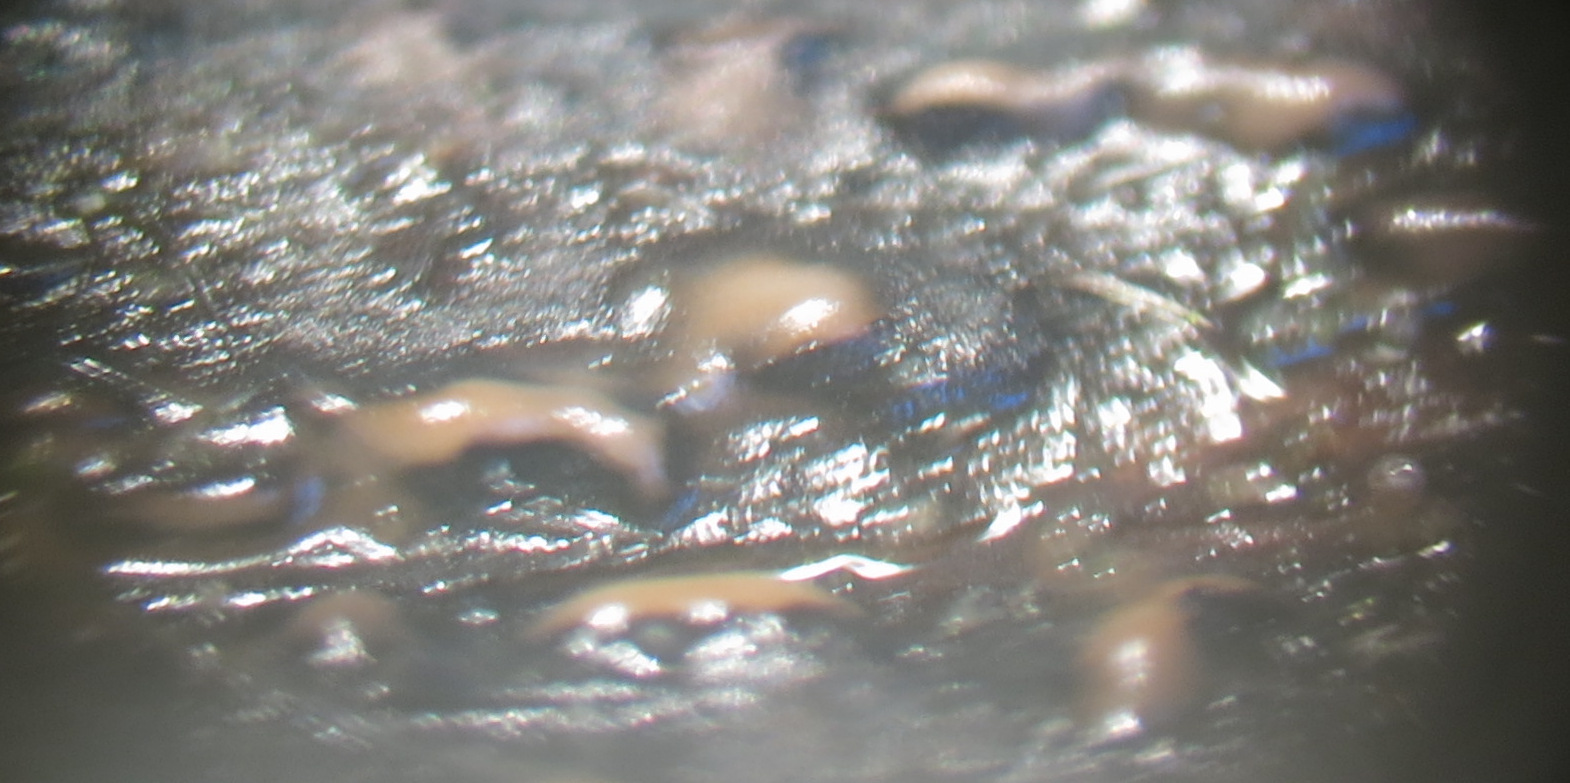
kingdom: Fungi
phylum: Ascomycota
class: Sordariomycetes
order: Diaporthales
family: Diaporthaceae
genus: Diaporthopsis
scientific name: Diaporthopsis urticae
